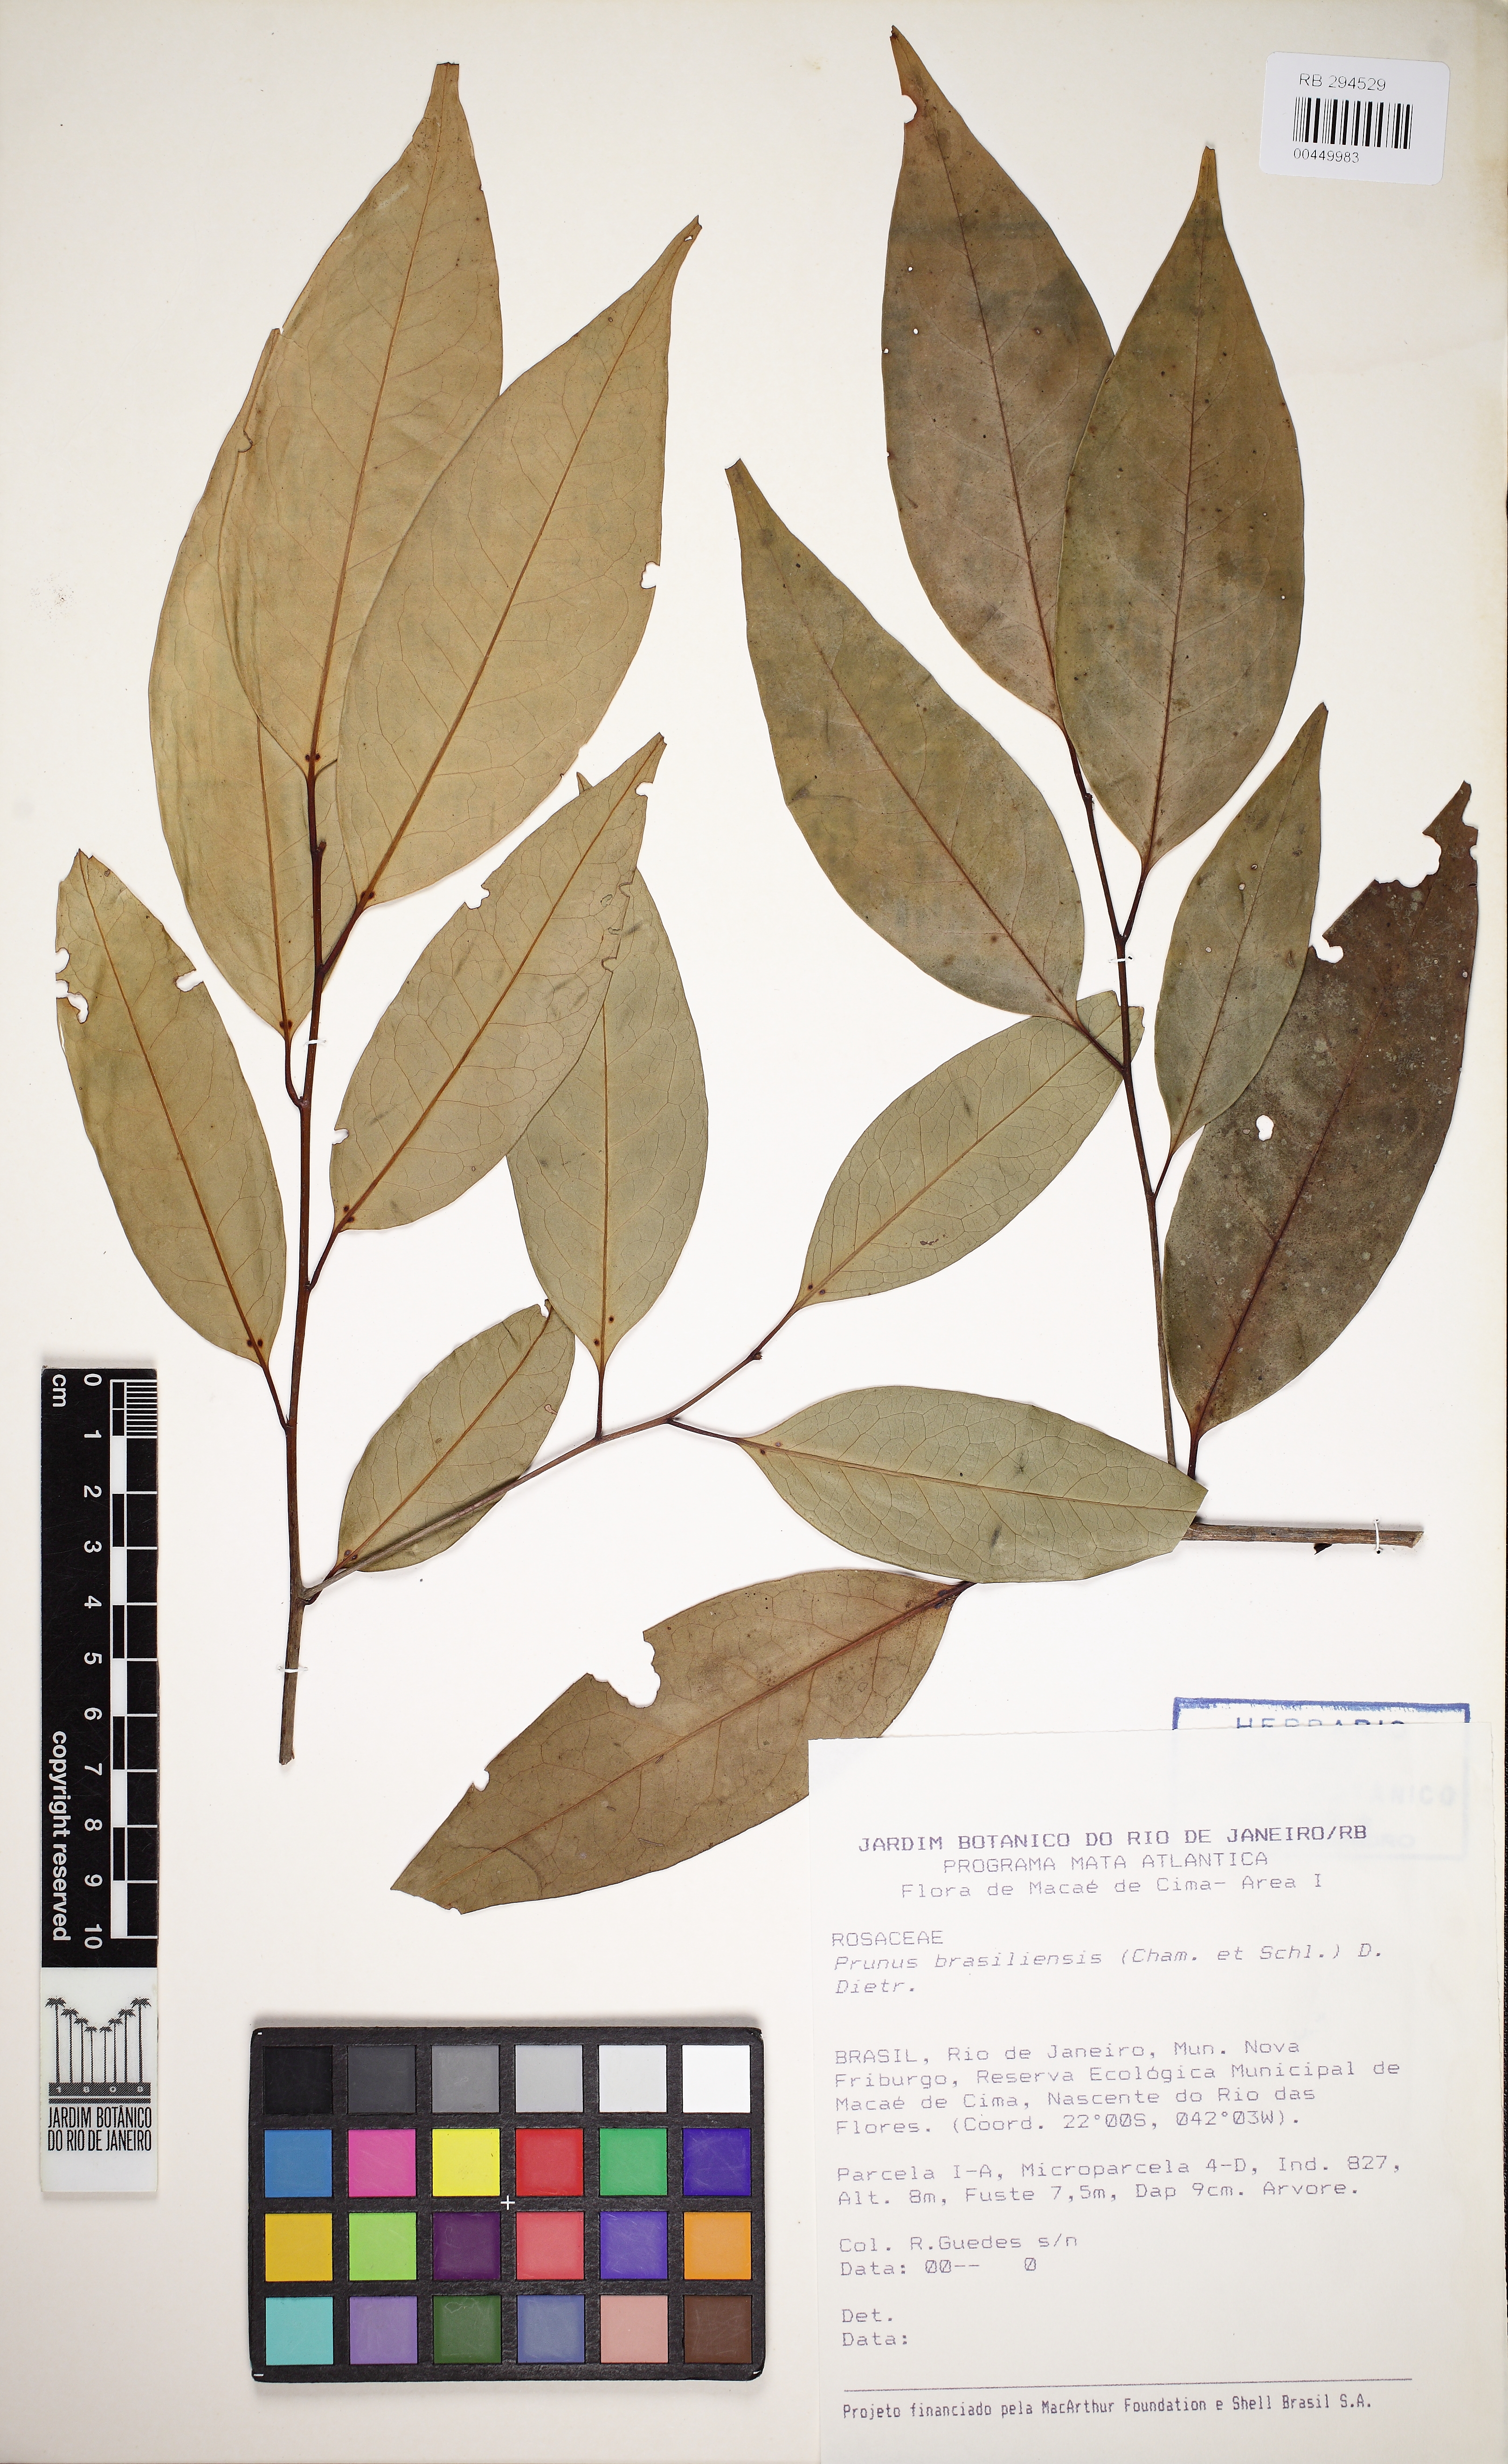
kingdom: Plantae
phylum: Tracheophyta
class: Magnoliopsida
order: Rosales
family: Rosaceae
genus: Prunus
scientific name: Prunus brasiliensis
